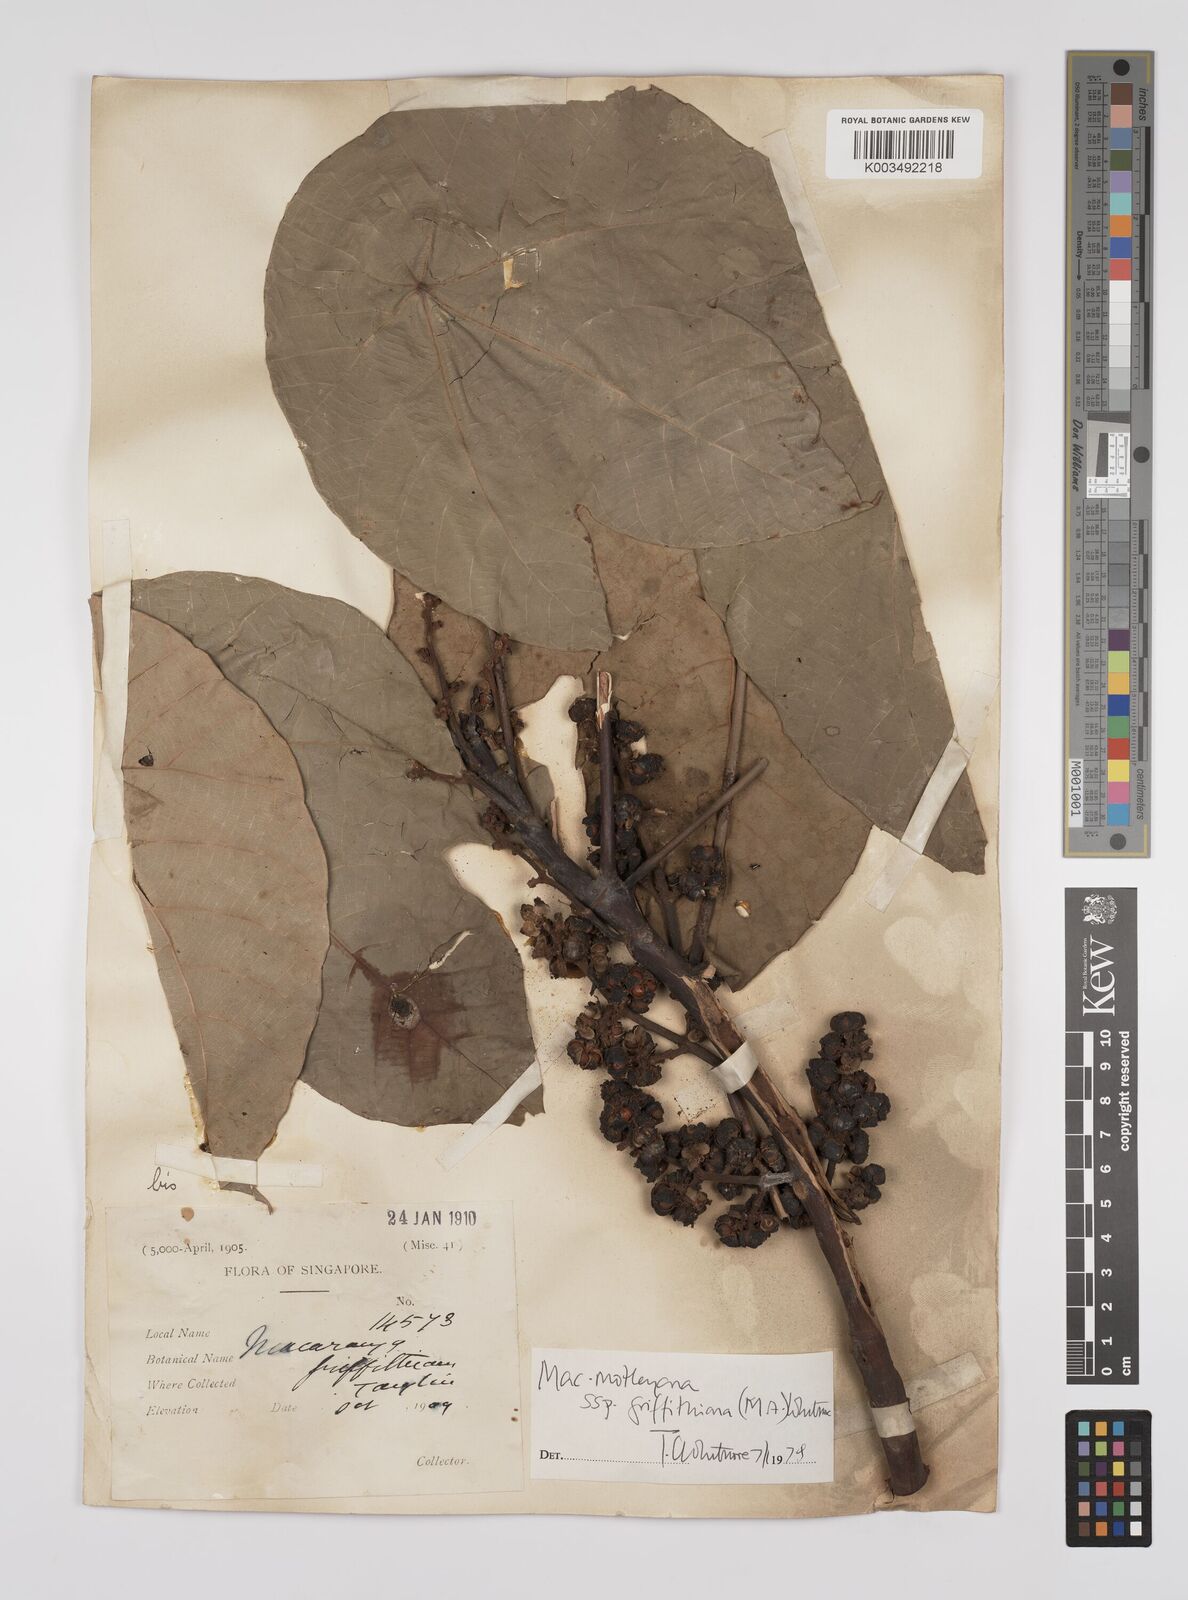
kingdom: Plantae
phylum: Tracheophyta
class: Magnoliopsida
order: Malpighiales
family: Euphorbiaceae
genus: Macaranga
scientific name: Macaranga griffithiana
